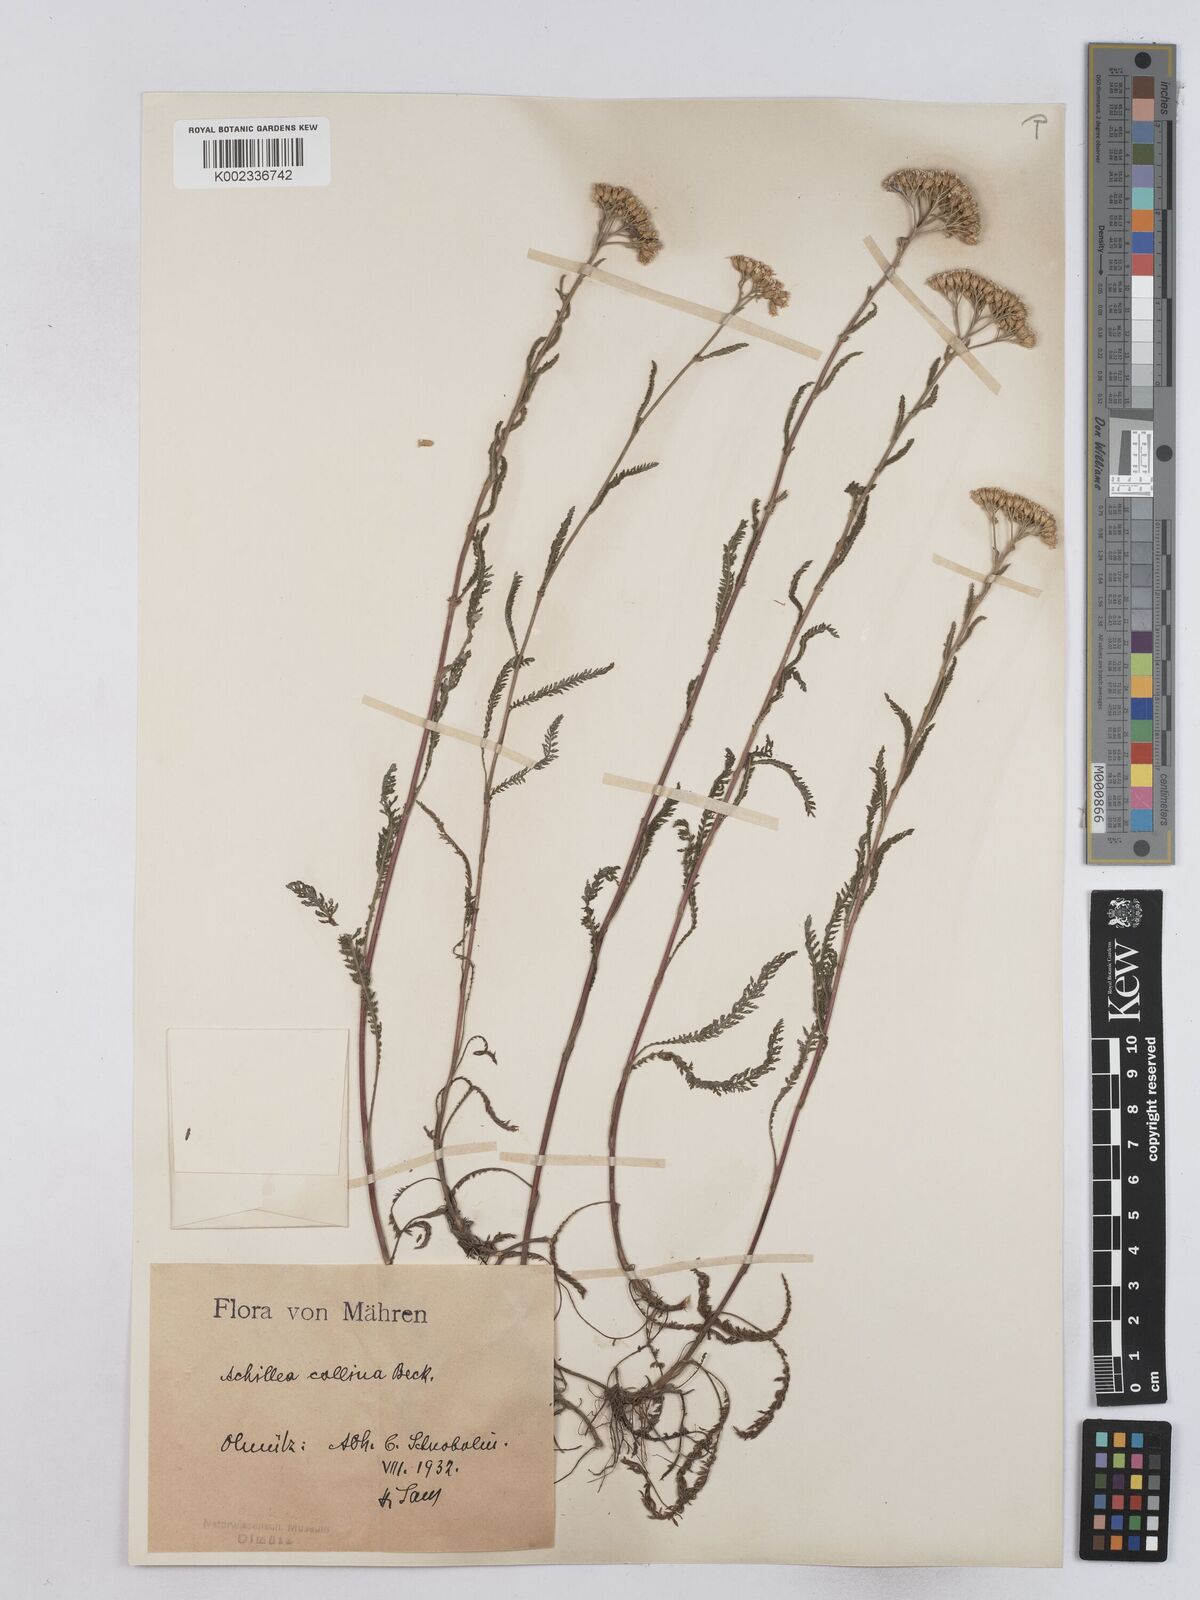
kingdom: Plantae
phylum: Tracheophyta
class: Magnoliopsida
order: Asterales
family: Asteraceae
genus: Achillea
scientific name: Achillea collina
